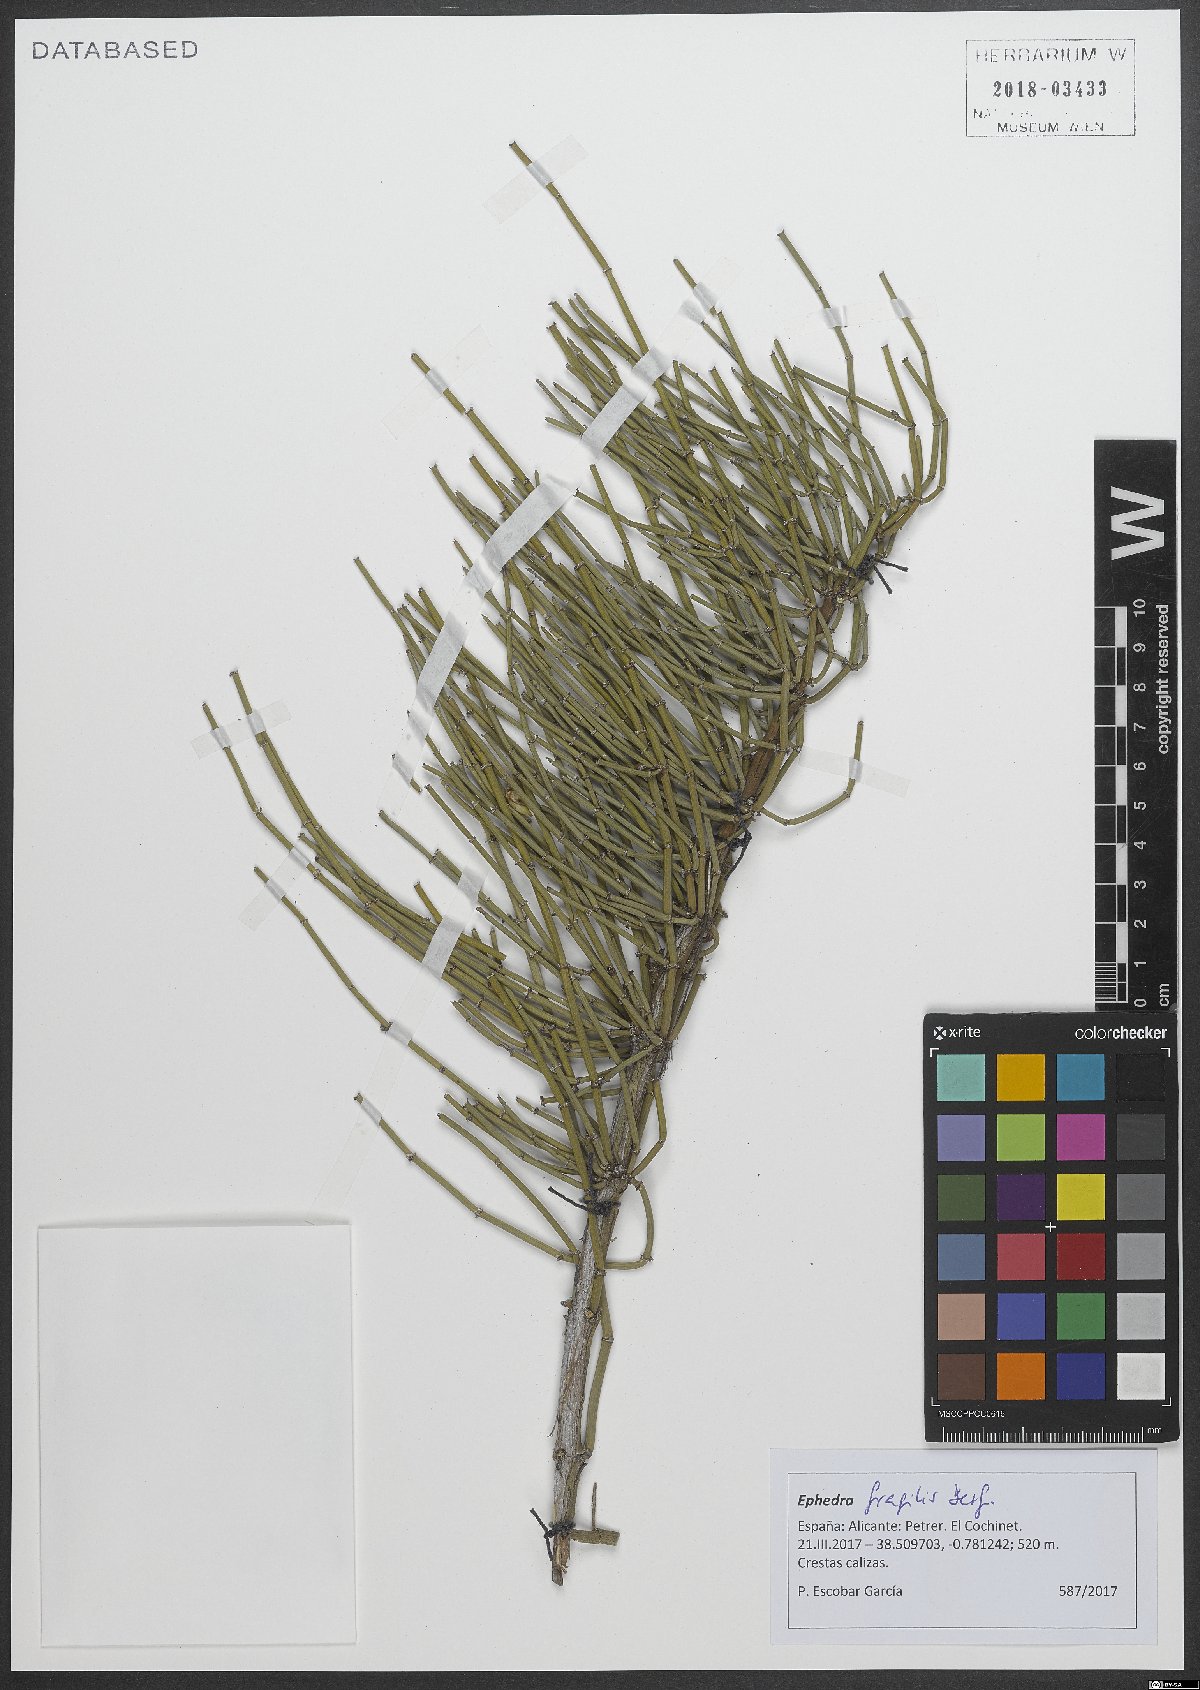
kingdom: Plantae
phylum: Tracheophyta
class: Gnetopsida
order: Ephedrales
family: Ephedraceae
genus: Ephedra
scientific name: Ephedra fragilis
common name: Joint pine
